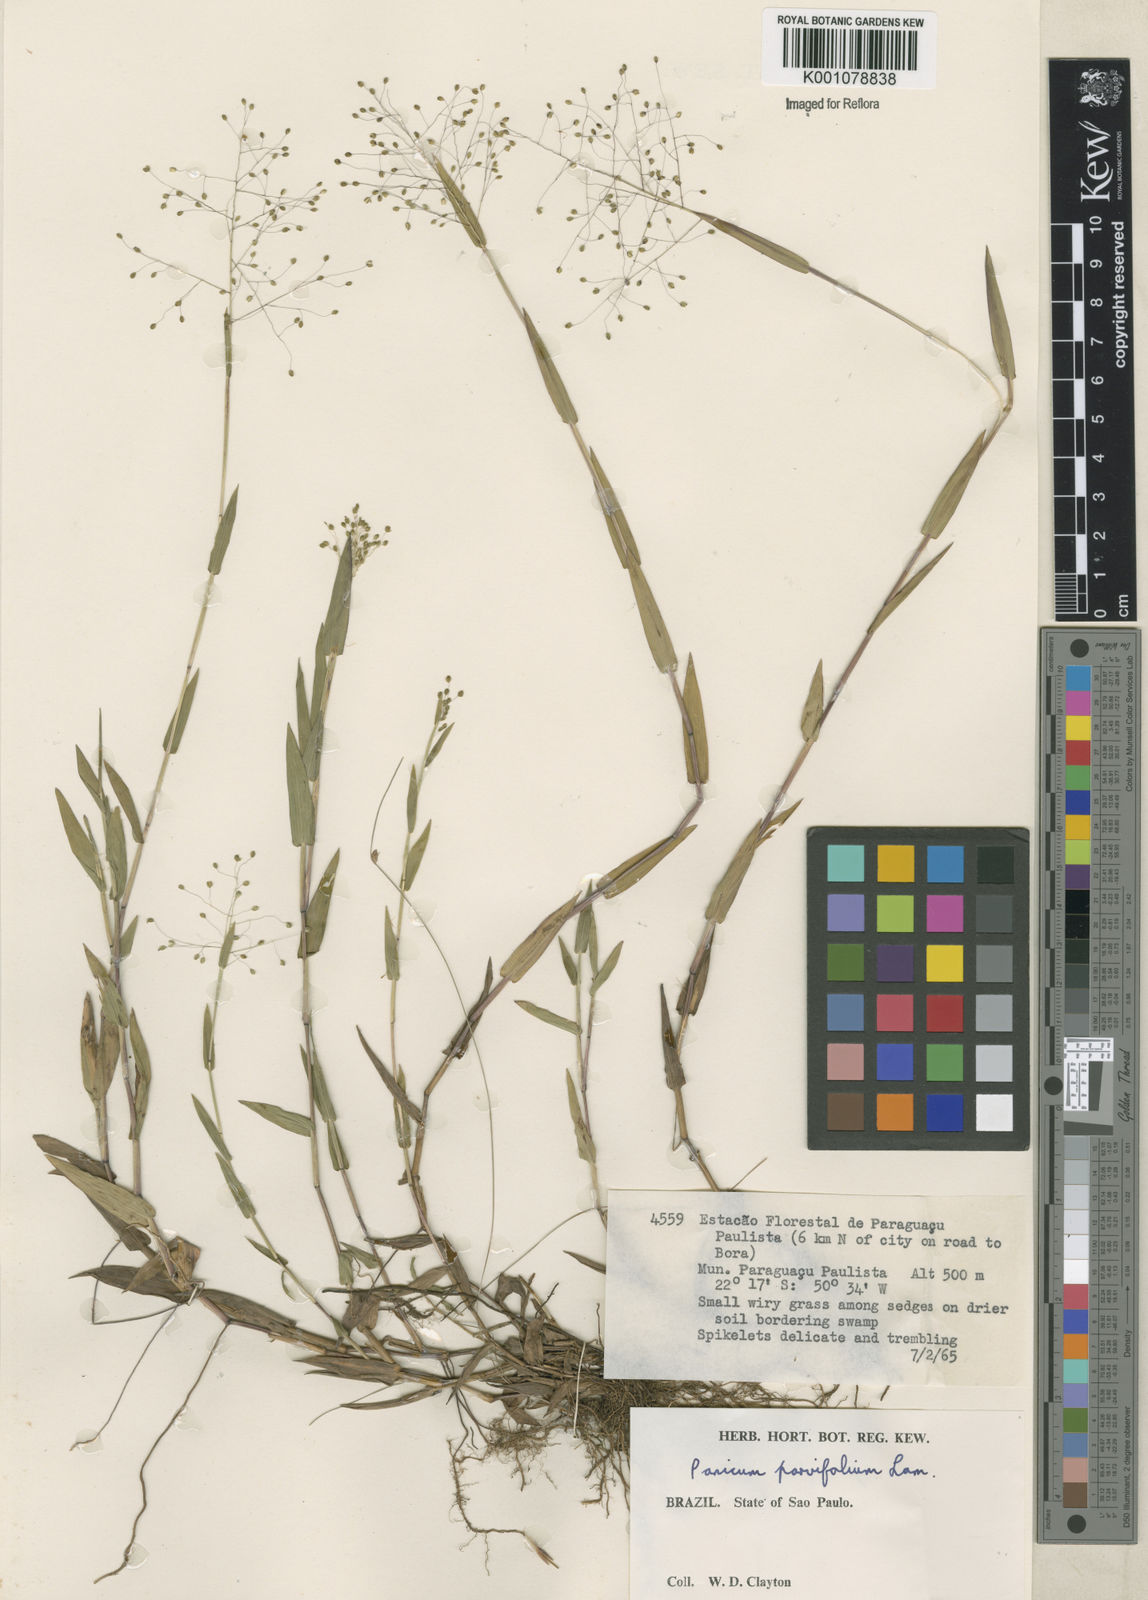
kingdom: Plantae
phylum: Tracheophyta
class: Liliopsida
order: Poales
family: Poaceae
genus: Trichanthecium
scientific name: Trichanthecium schwackeanum
